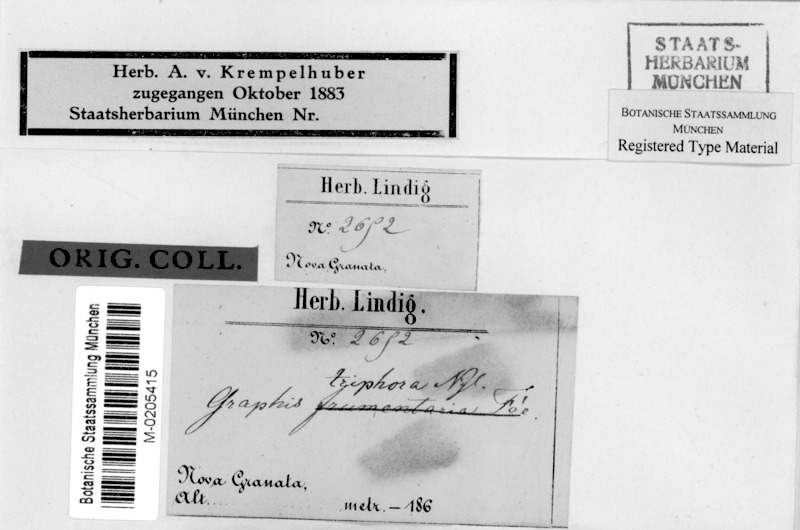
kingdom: Fungi
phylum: Ascomycota
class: Lecanoromycetes
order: Ostropales
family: Graphidaceae
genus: Allographa
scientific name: Allographa triphora
